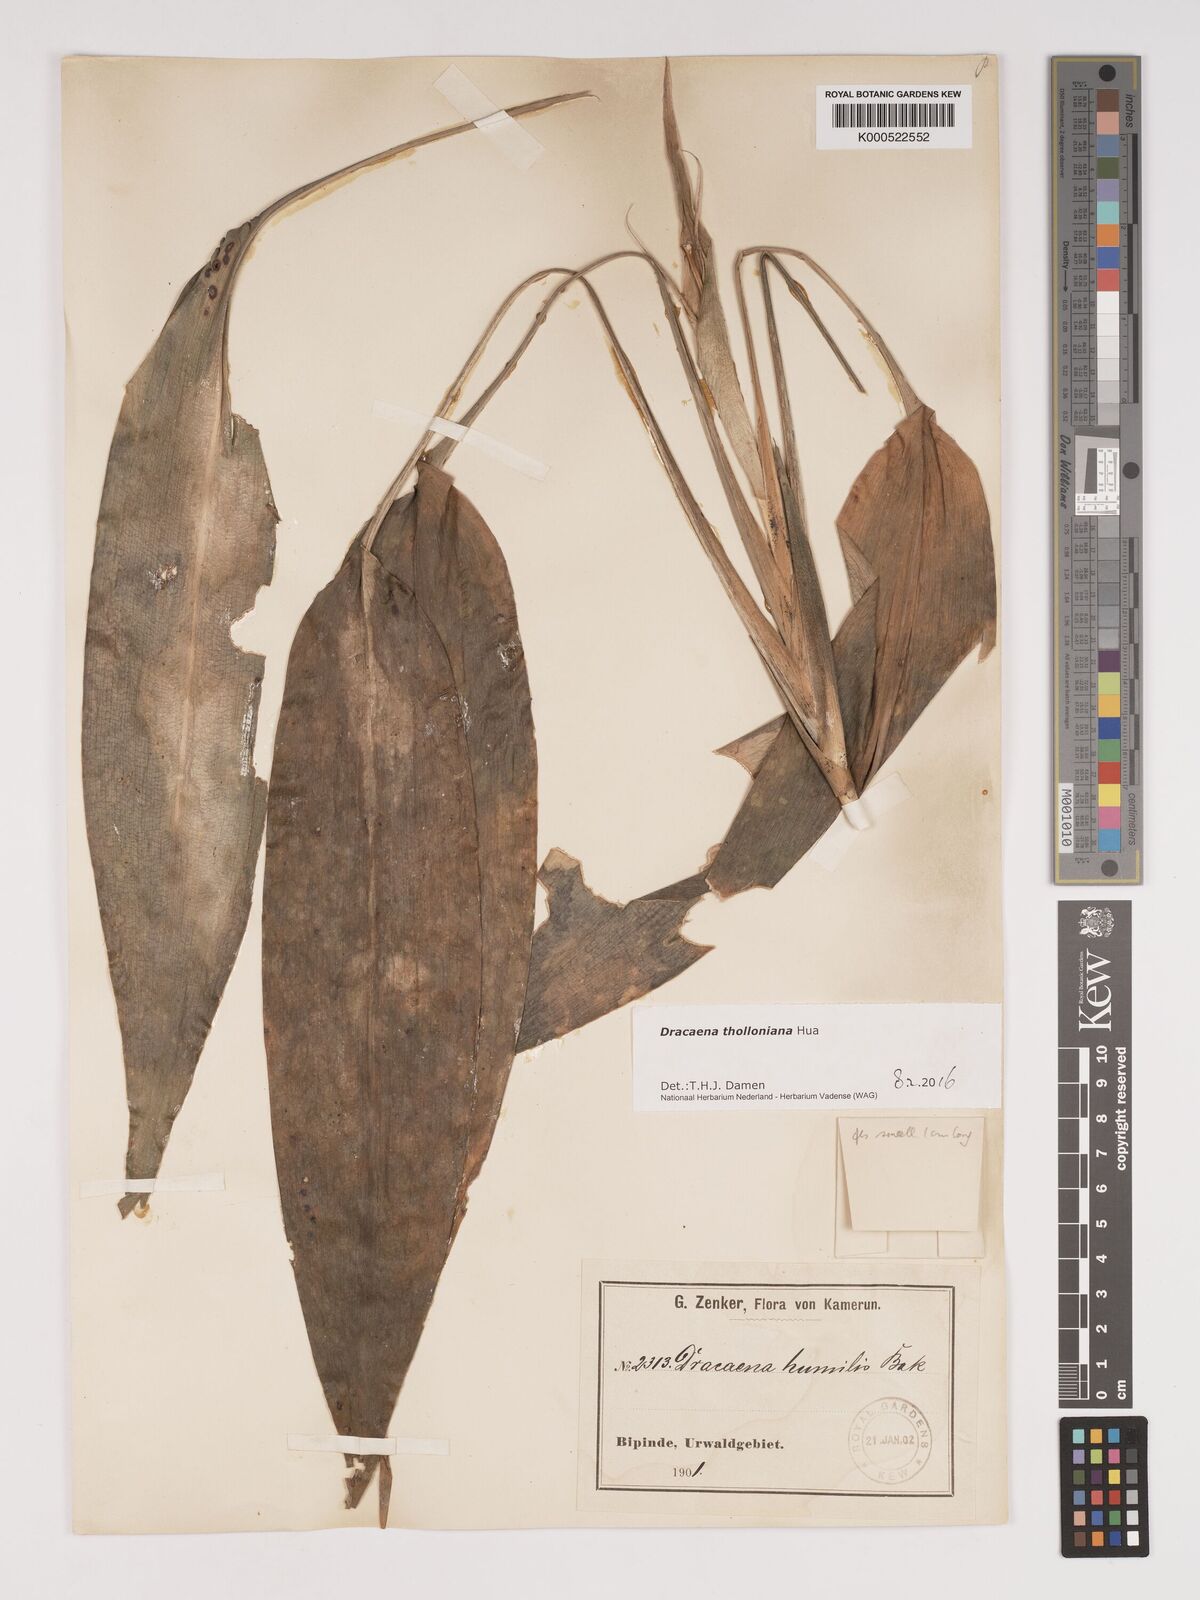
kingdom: Plantae
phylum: Tracheophyta
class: Liliopsida
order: Asparagales
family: Asparagaceae
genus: Dracaena
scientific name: Dracaena tholloniana
